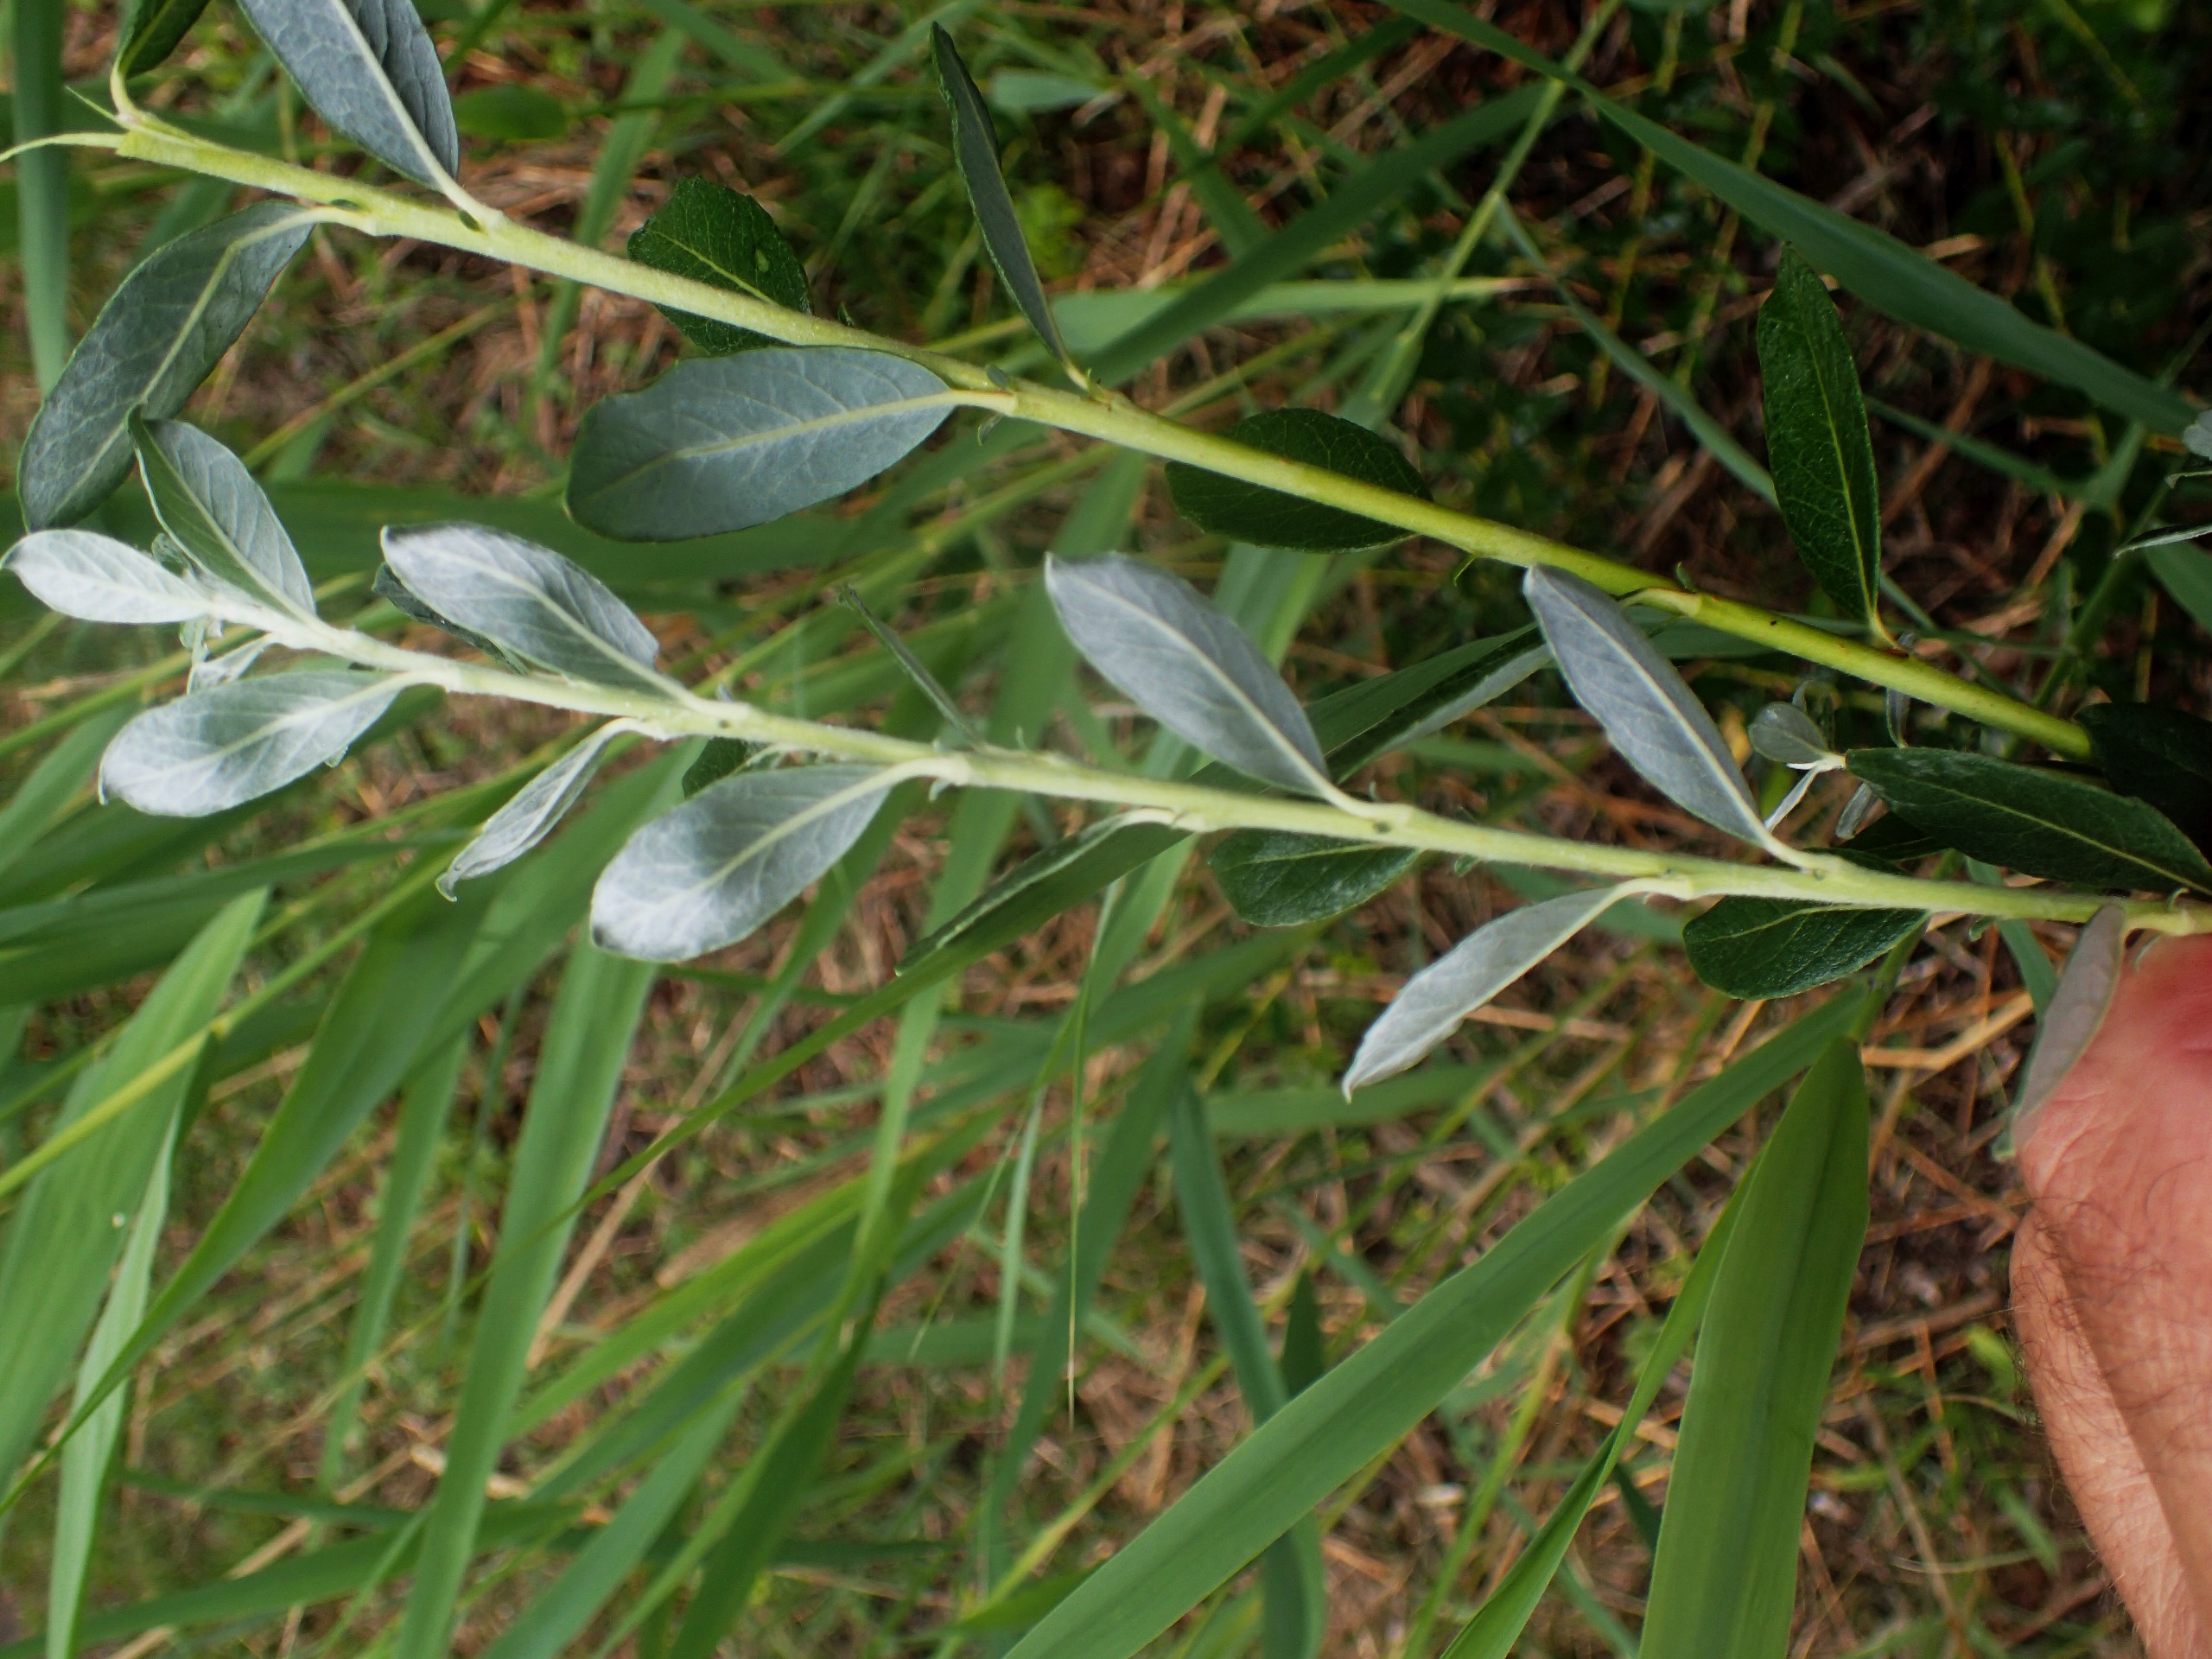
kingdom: Plantae
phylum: Tracheophyta
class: Magnoliopsida
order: Malpighiales
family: Salicaceae
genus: Salix
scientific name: Salix repens
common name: Krybende pil
